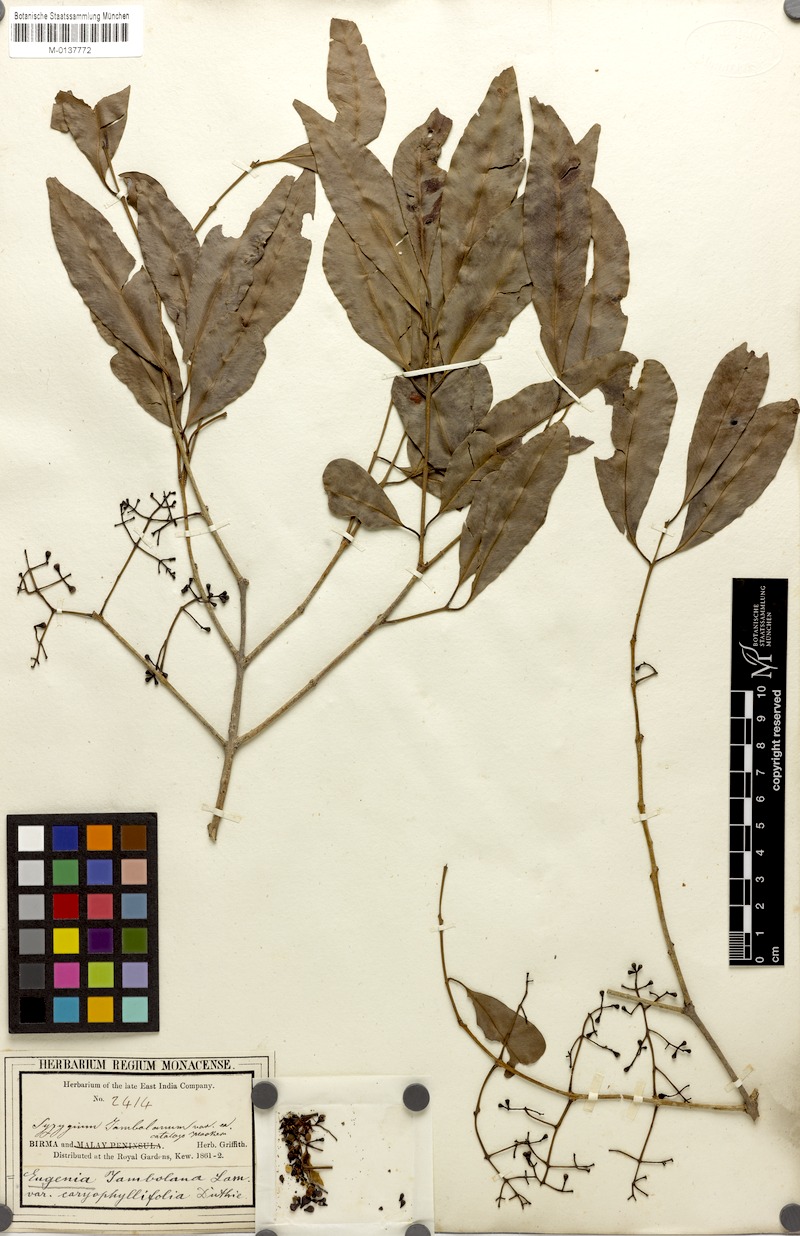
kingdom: Plantae
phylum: Tracheophyta
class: Magnoliopsida
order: Myrtales
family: Myrtaceae
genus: Syzygium
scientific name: Syzygium cumini
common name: Java plum
